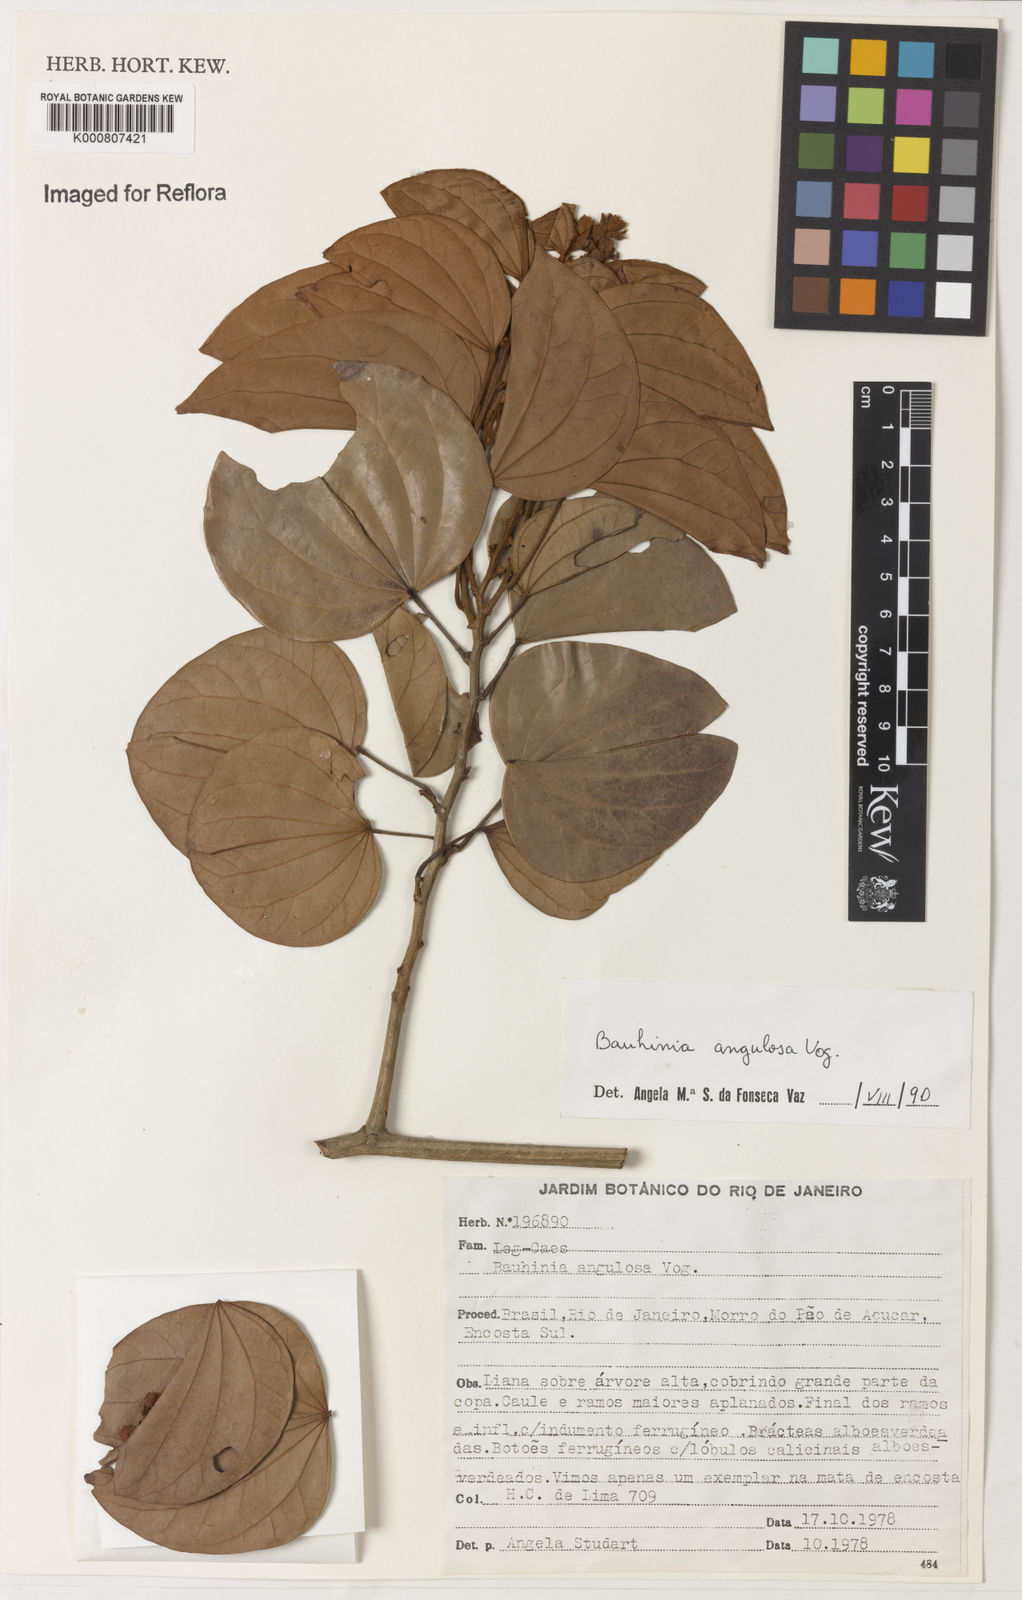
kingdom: Plantae
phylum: Tracheophyta
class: Magnoliopsida
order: Fabales
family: Fabaceae
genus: Schnella
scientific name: Schnella angulosa
